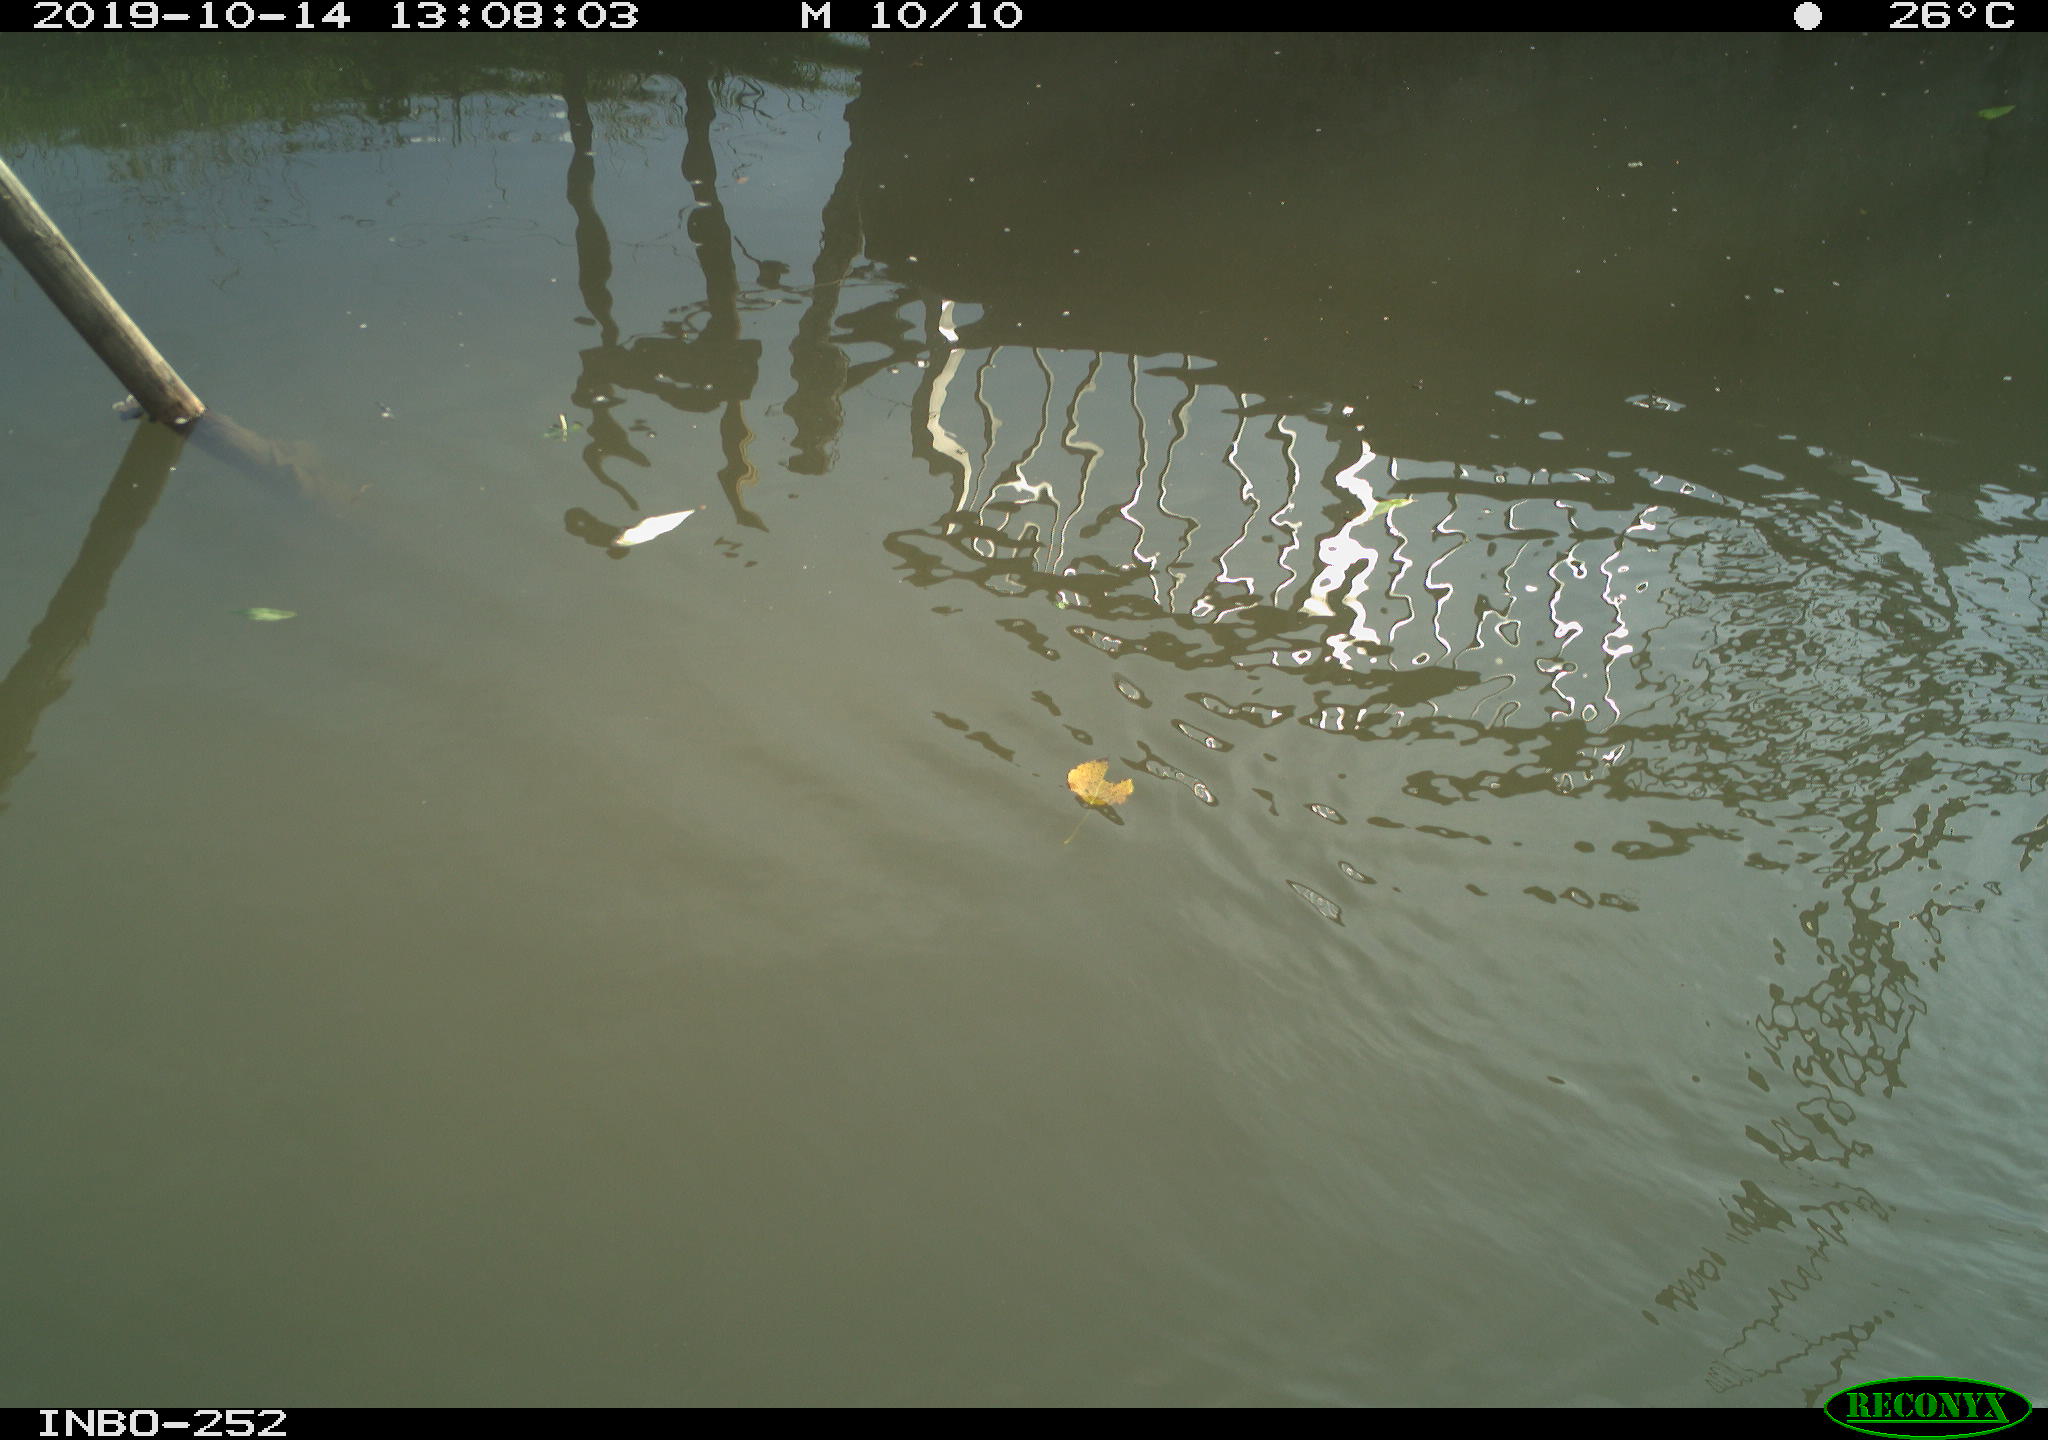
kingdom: Animalia
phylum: Chordata
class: Aves
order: Gruiformes
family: Rallidae
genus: Gallinula
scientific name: Gallinula chloropus
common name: Common moorhen
